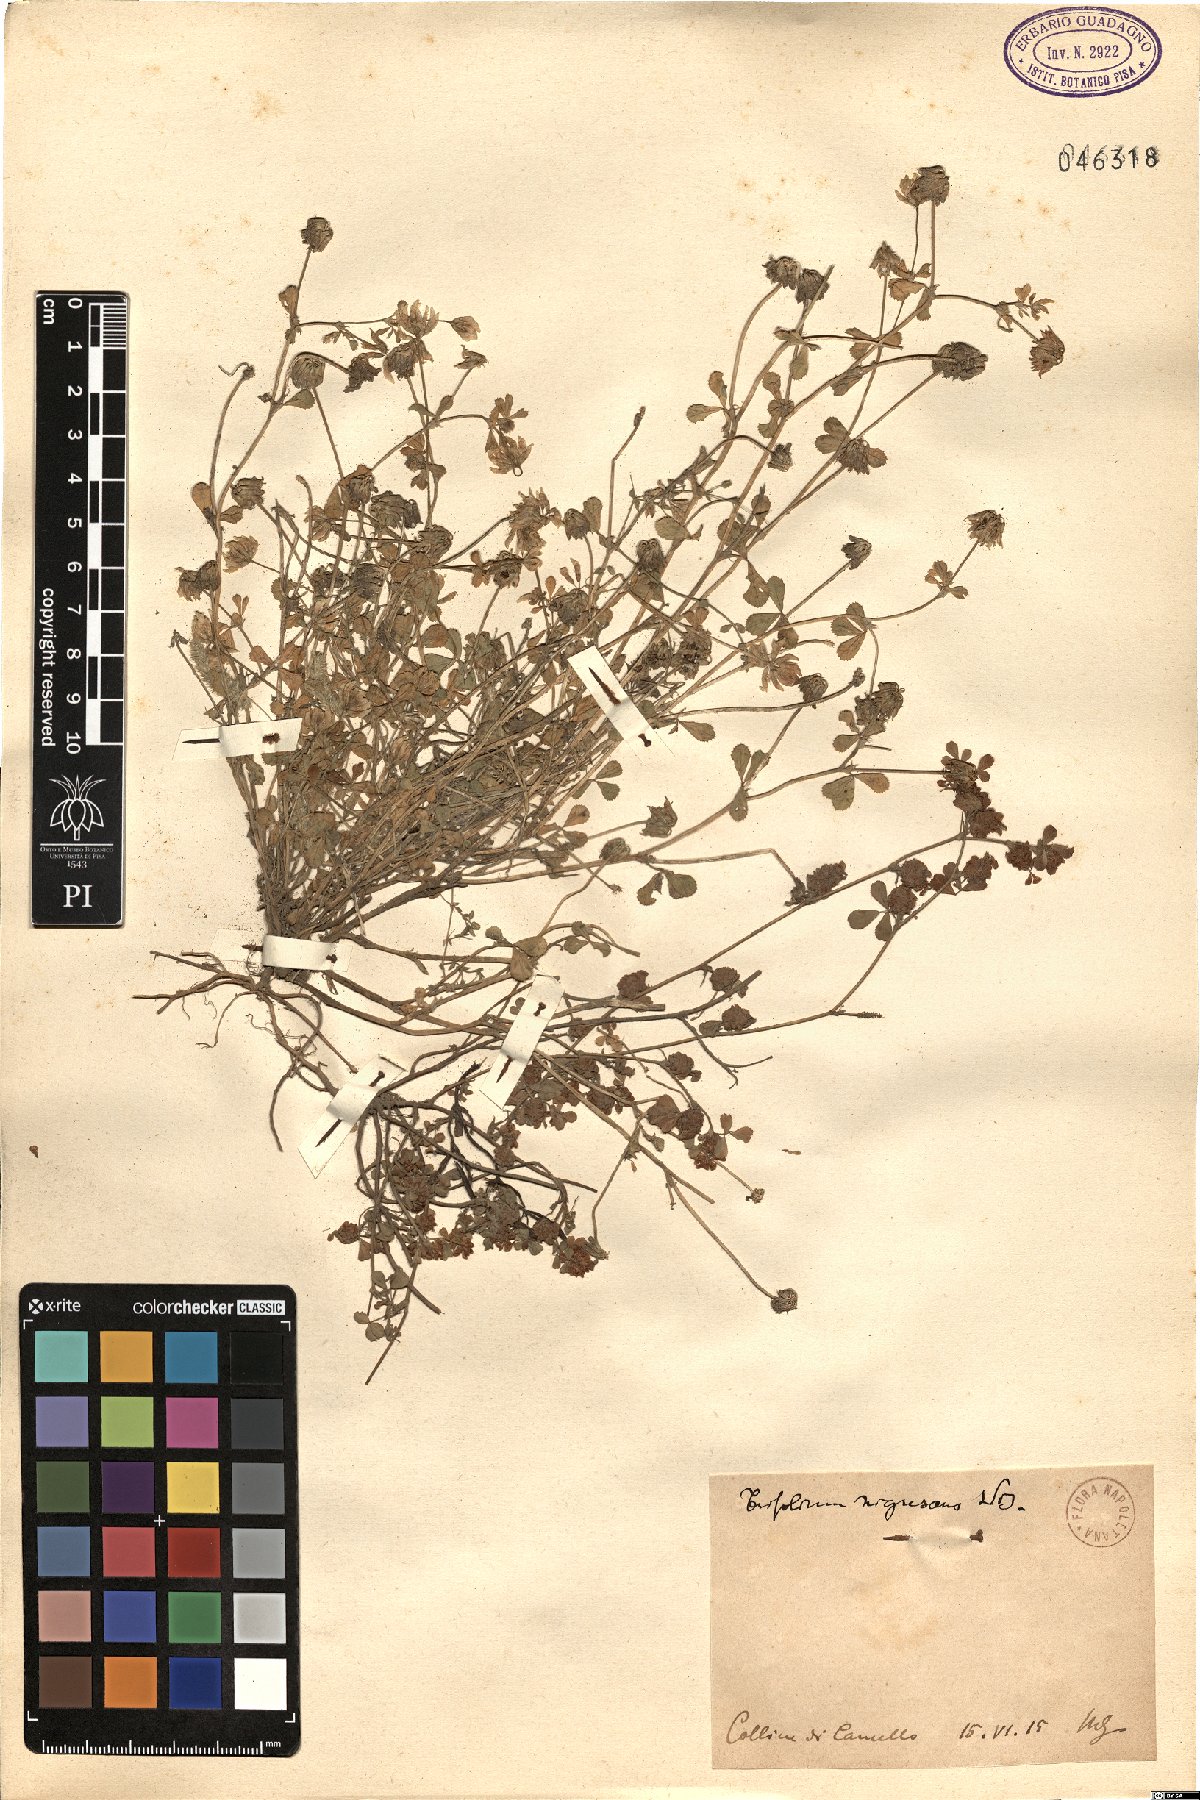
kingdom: Plantae
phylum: Tracheophyta
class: Magnoliopsida
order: Fabales
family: Fabaceae
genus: Trifolium
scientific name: Trifolium nigrescens
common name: Small white clover
